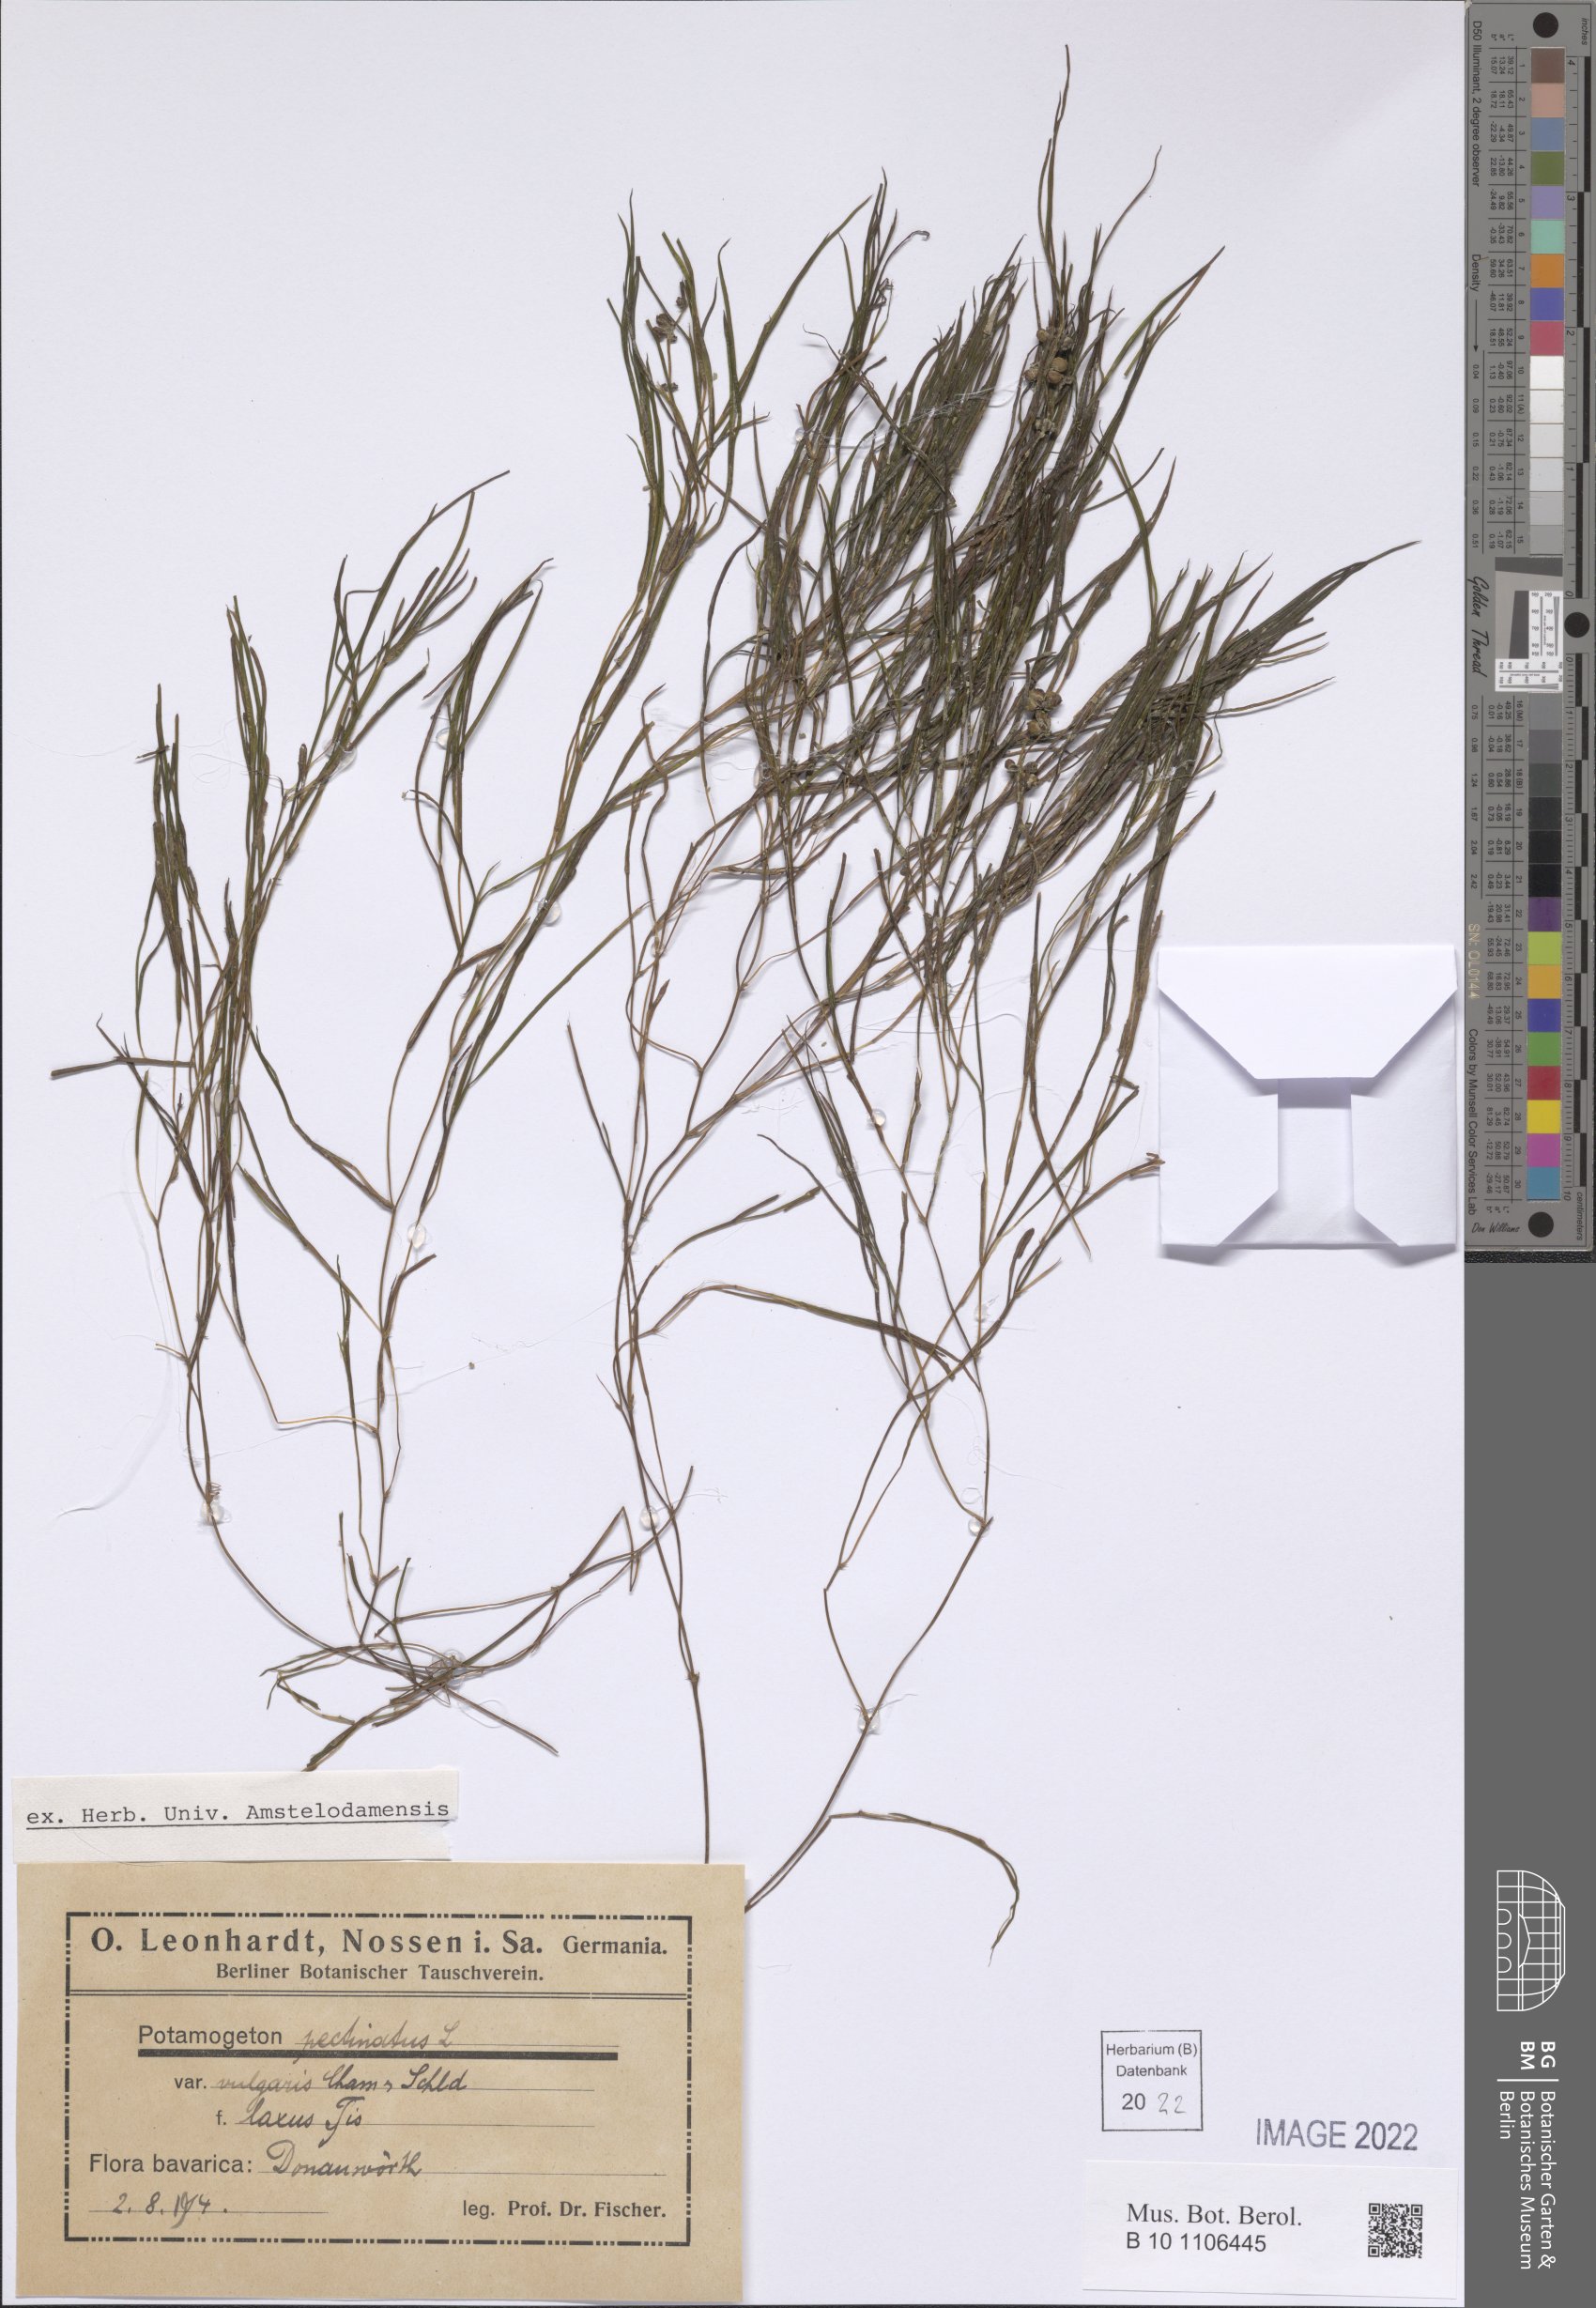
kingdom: Plantae
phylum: Tracheophyta
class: Liliopsida
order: Alismatales
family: Potamogetonaceae
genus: Stuckenia
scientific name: Stuckenia pectinata
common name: Sago pondweed
